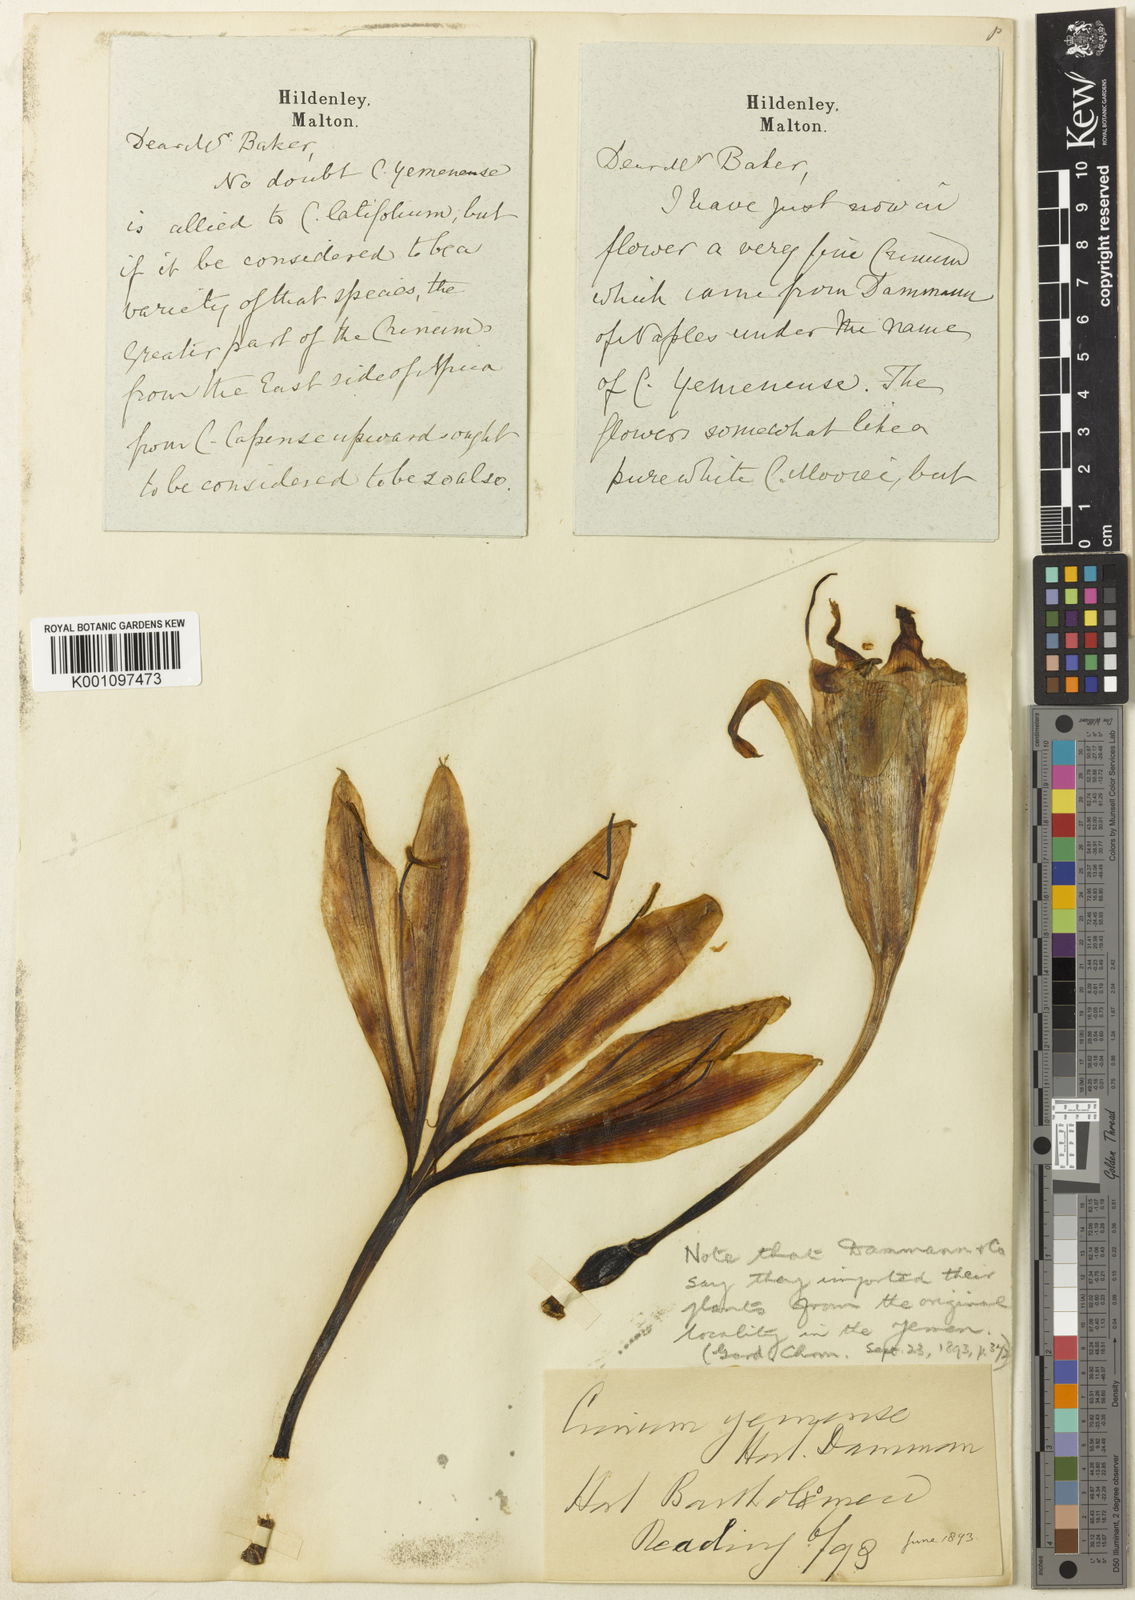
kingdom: Plantae
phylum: Tracheophyta
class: Liliopsida
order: Asparagales
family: Amaryllidaceae
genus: Crinum
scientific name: Crinum
